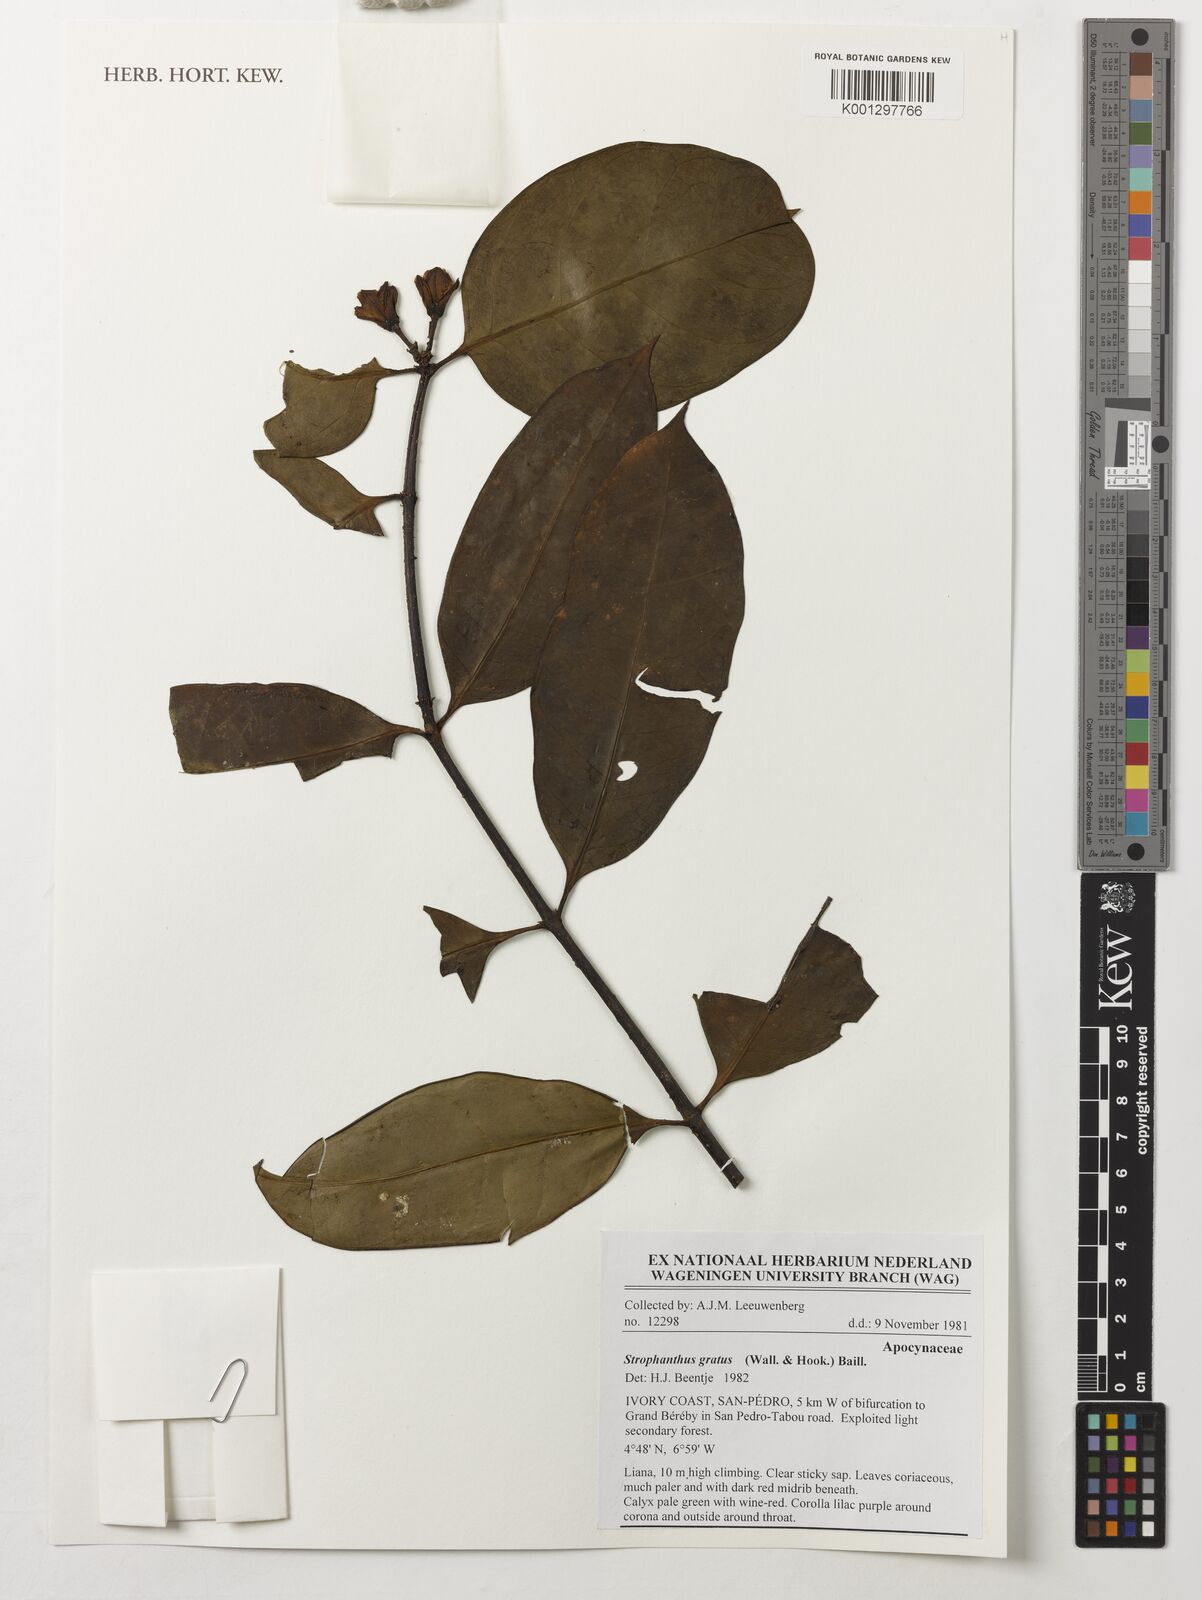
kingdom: Plantae
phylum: Tracheophyta
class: Magnoliopsida
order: Gentianales
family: Apocynaceae
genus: Strophanthus
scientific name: Strophanthus gratus
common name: Climbing-oleander
